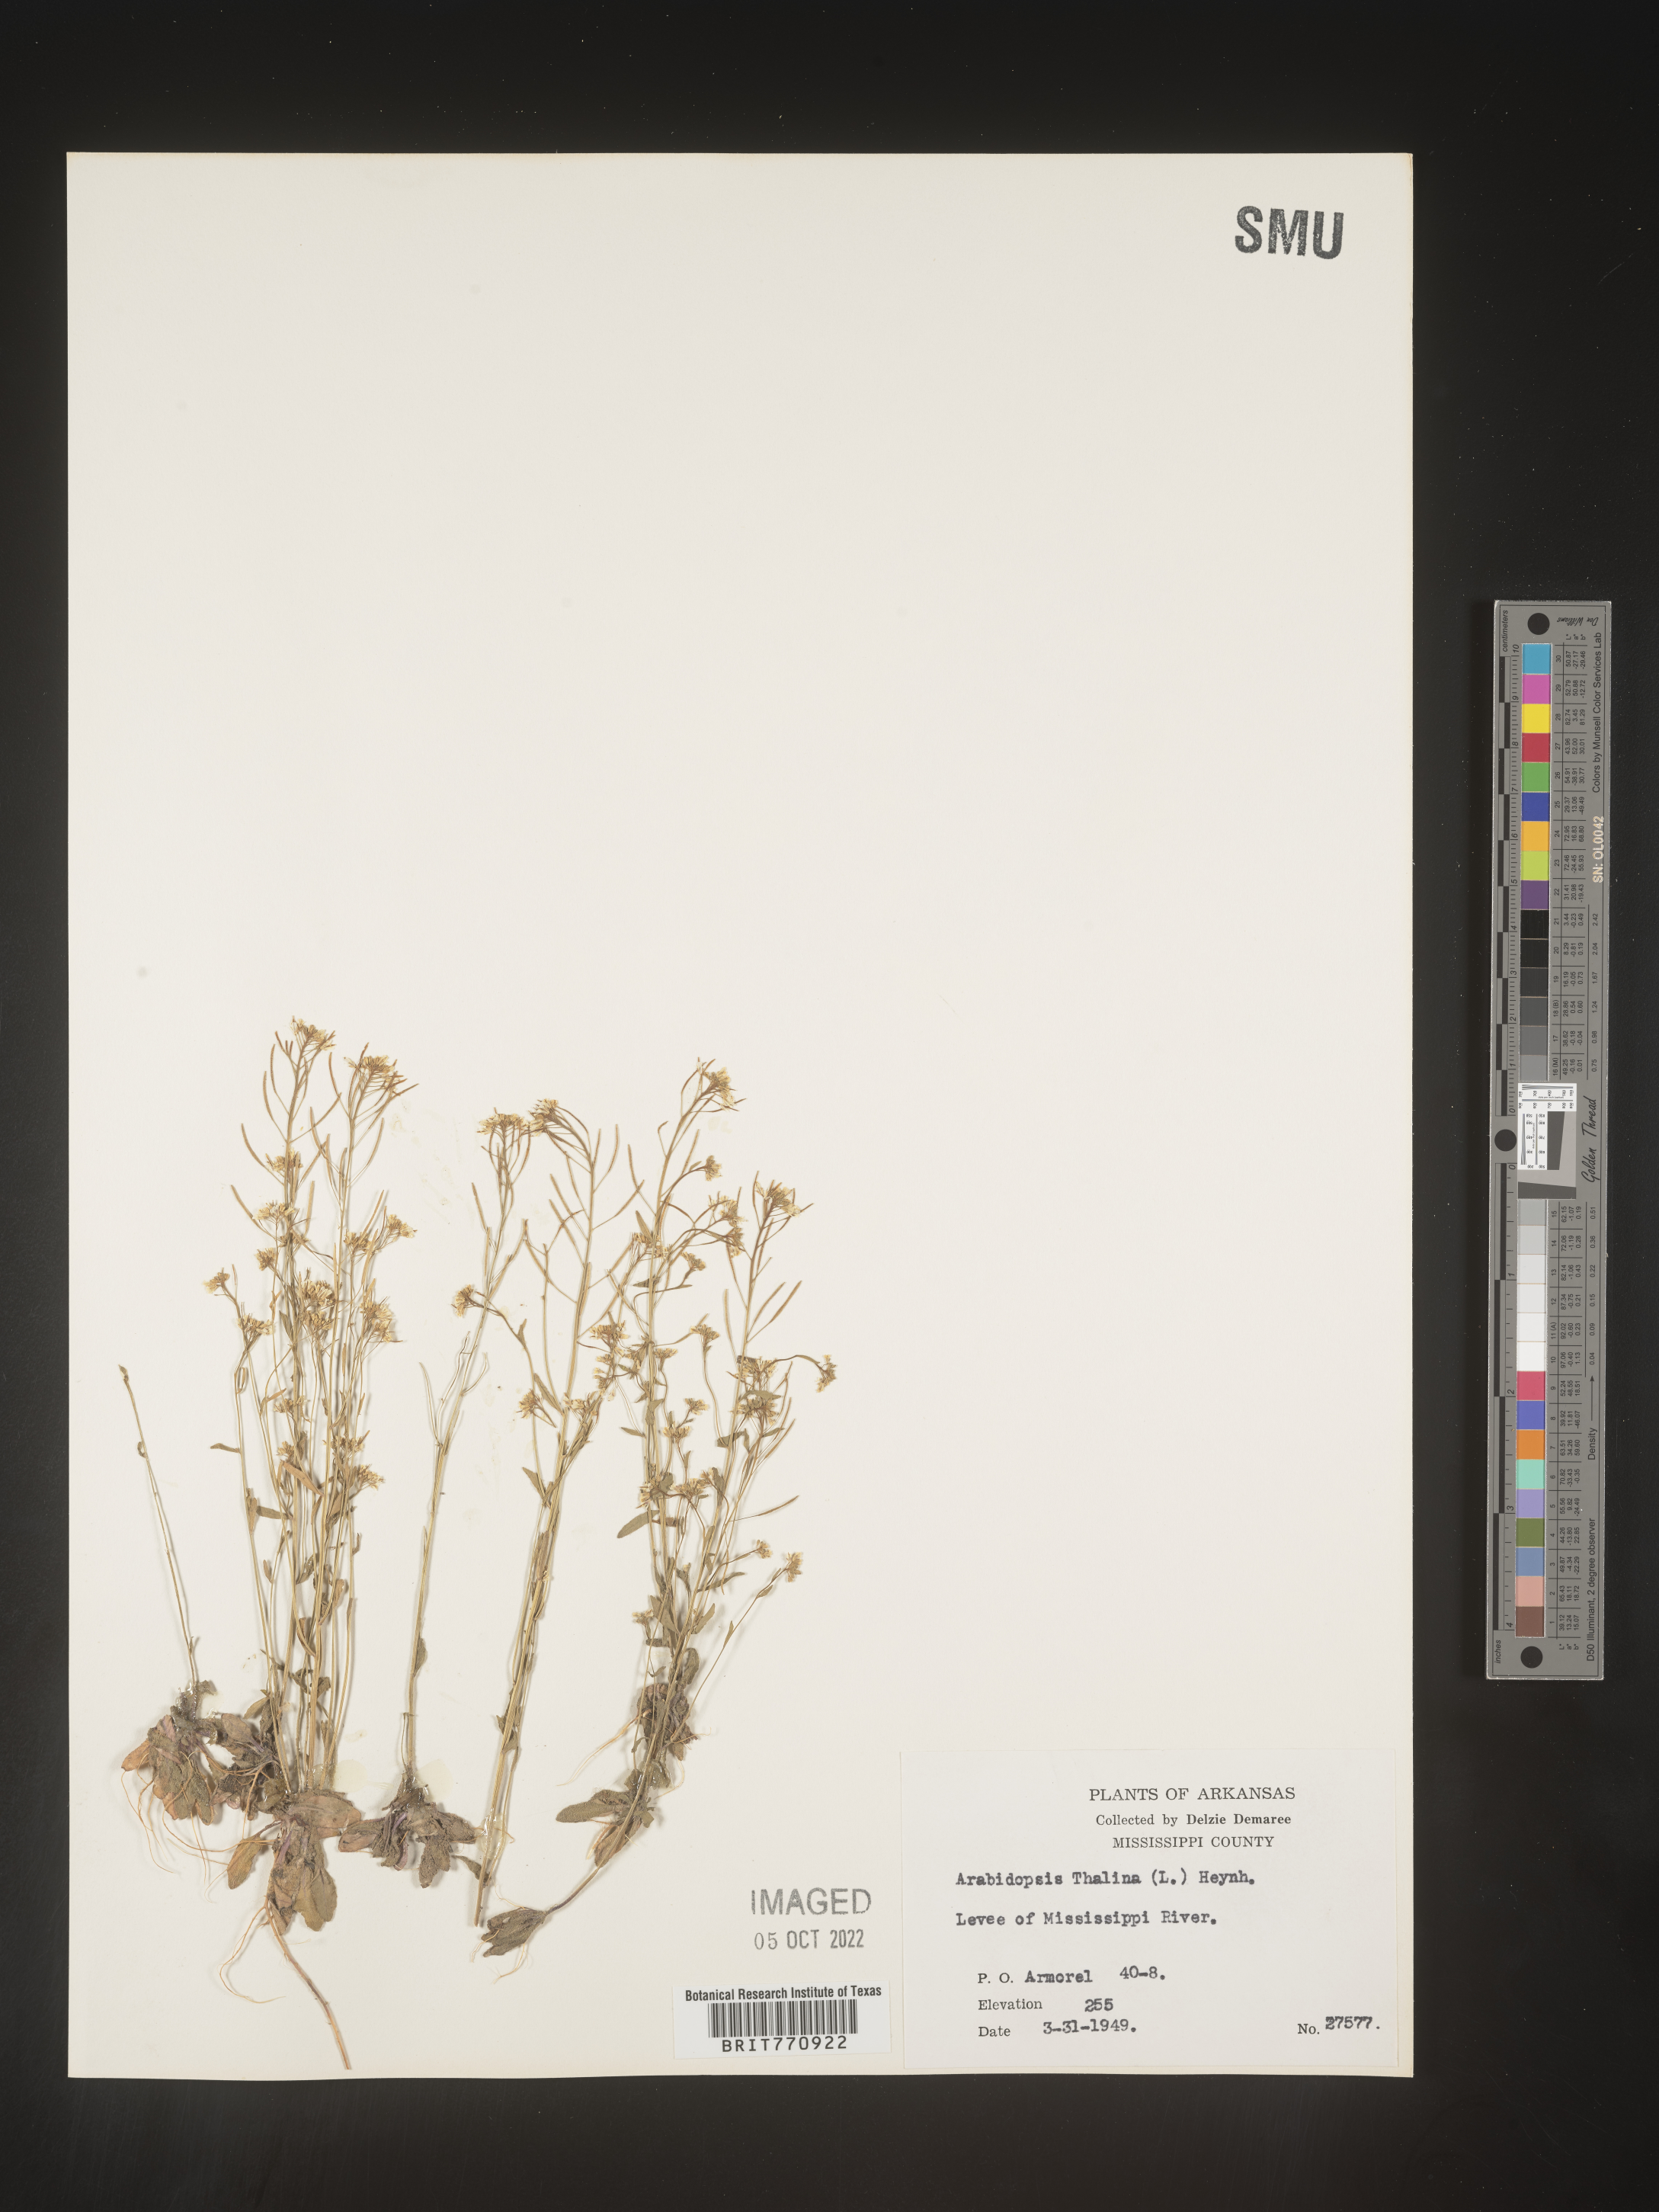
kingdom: Plantae
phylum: Tracheophyta
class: Magnoliopsida
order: Brassicales
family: Brassicaceae
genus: Arabidopsis
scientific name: Arabidopsis thaliana
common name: Thale cress
